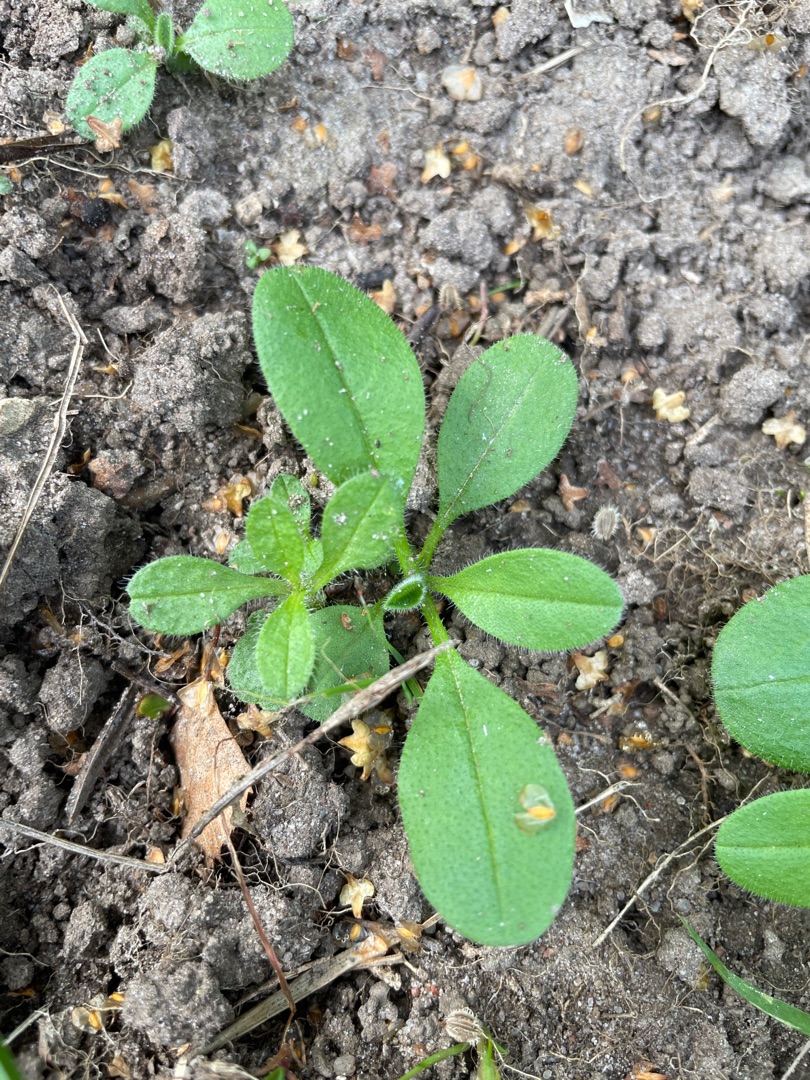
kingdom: Plantae
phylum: Tracheophyta
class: Magnoliopsida
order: Boraginales
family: Boraginaceae
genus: Myosotis
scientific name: Myosotis arvensis
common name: Mark-forglemmigej
